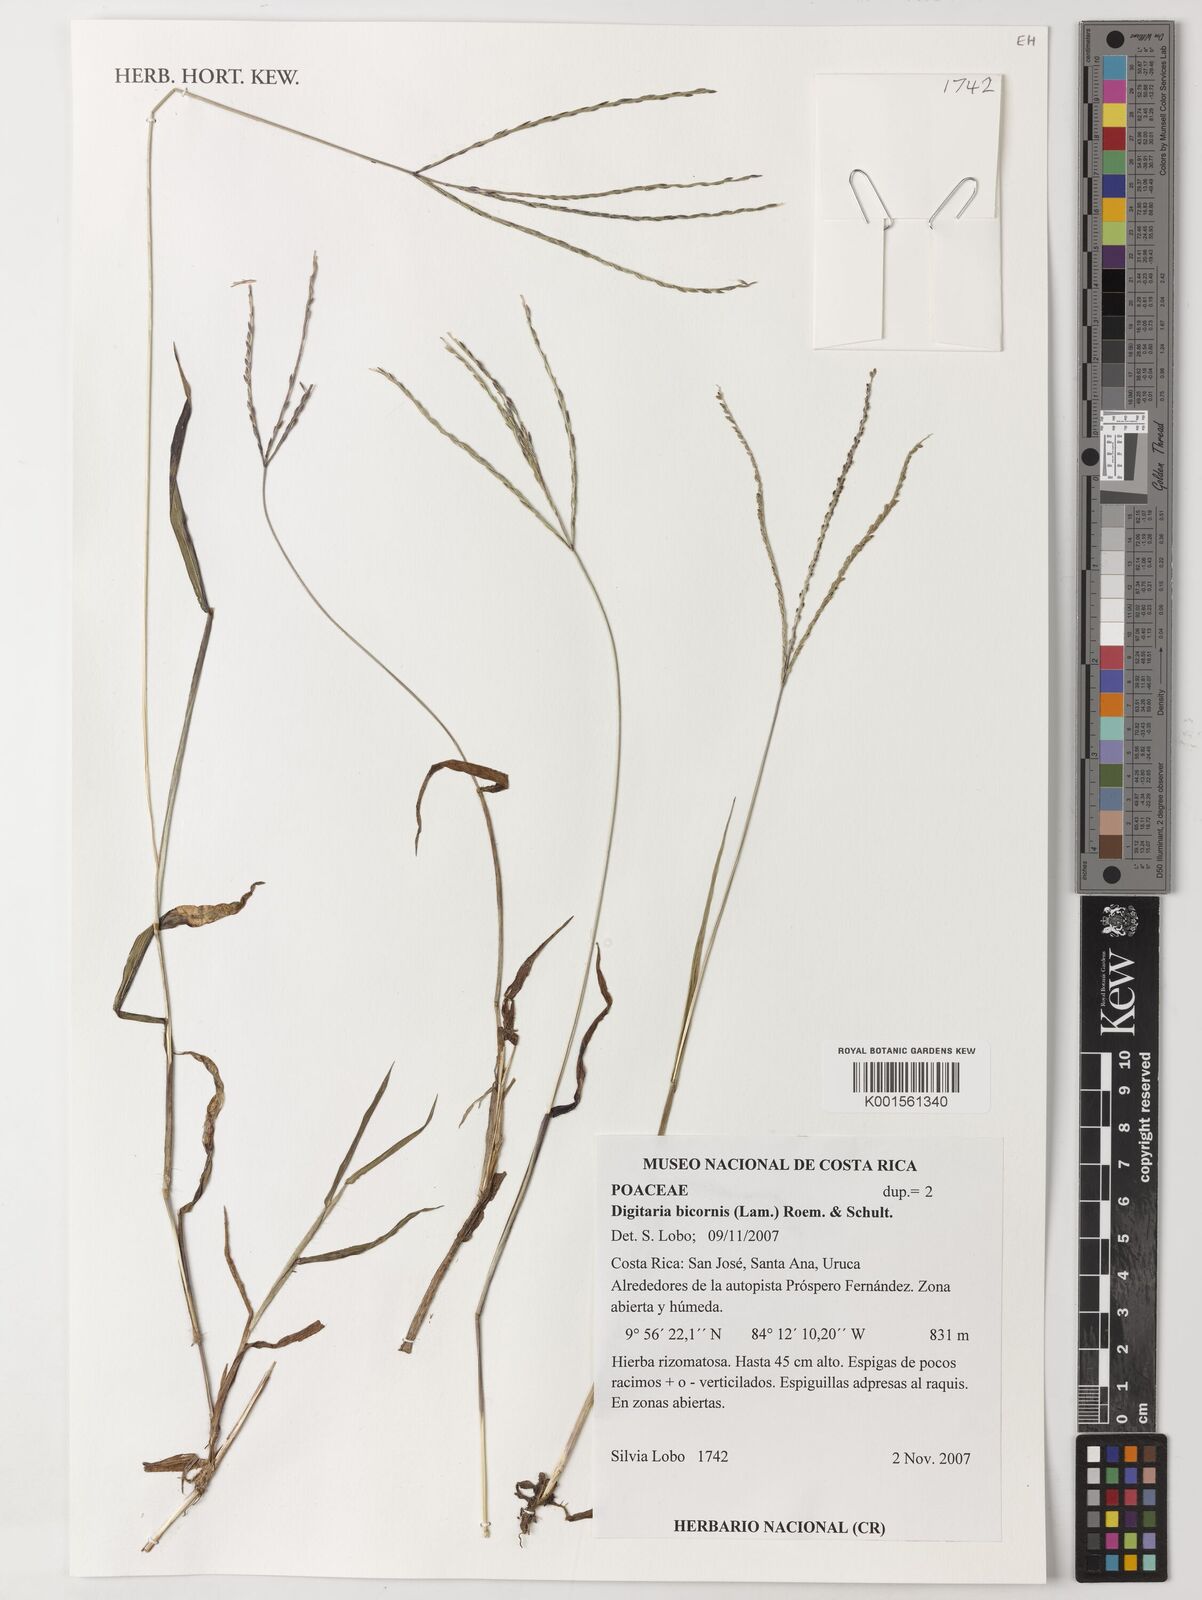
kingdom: Plantae
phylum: Tracheophyta
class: Liliopsida
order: Poales
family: Poaceae
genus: Digitaria
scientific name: Digitaria bicornis
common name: Asian crabgrass
